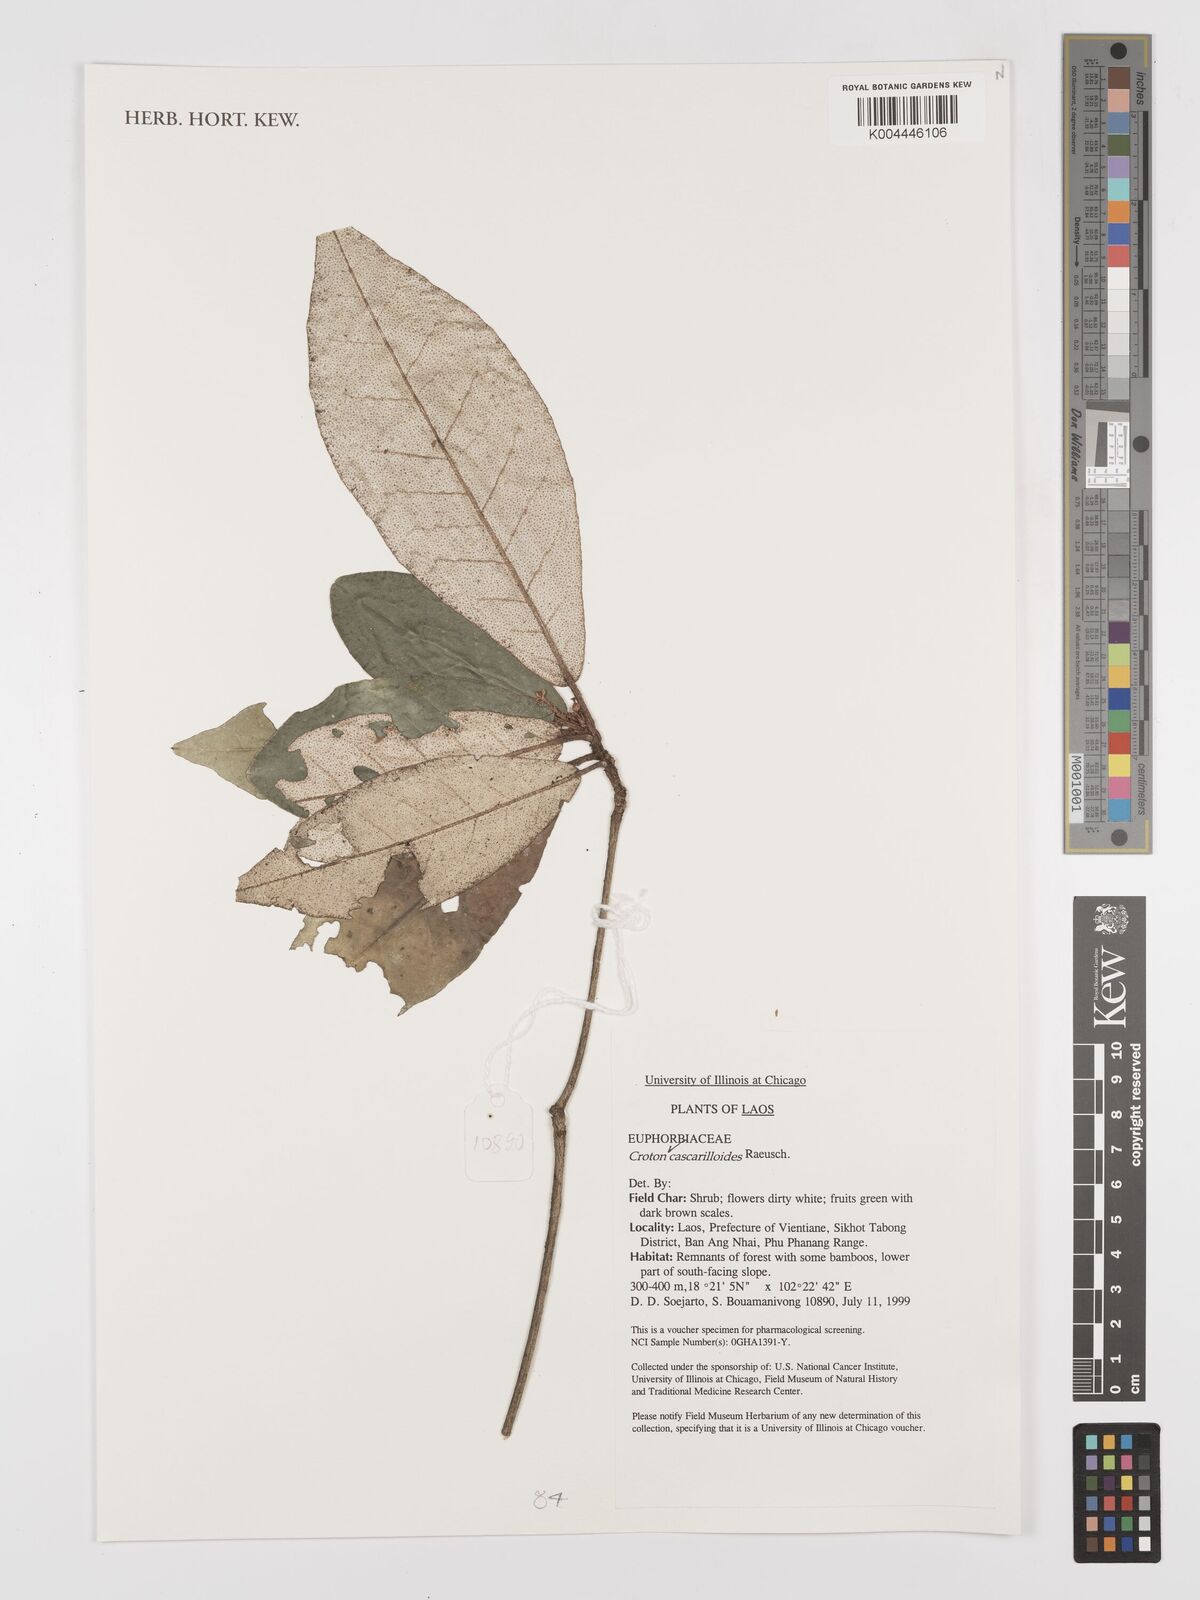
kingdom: Plantae
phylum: Tracheophyta
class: Magnoliopsida
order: Malpighiales
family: Euphorbiaceae
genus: Croton
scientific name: Croton cascarilloides
